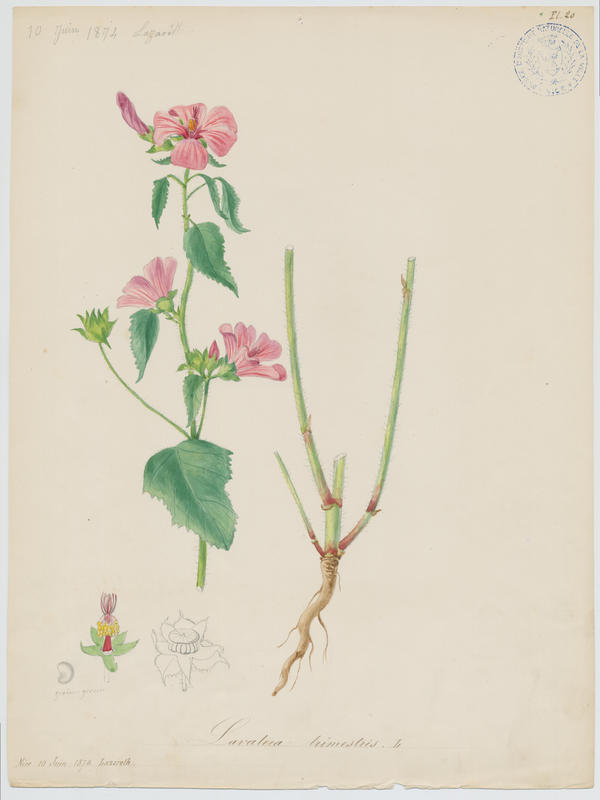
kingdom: Plantae
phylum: Tracheophyta
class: Magnoliopsida
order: Malvales
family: Malvaceae
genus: Malva
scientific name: Malva trimestris
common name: Royal mallow
